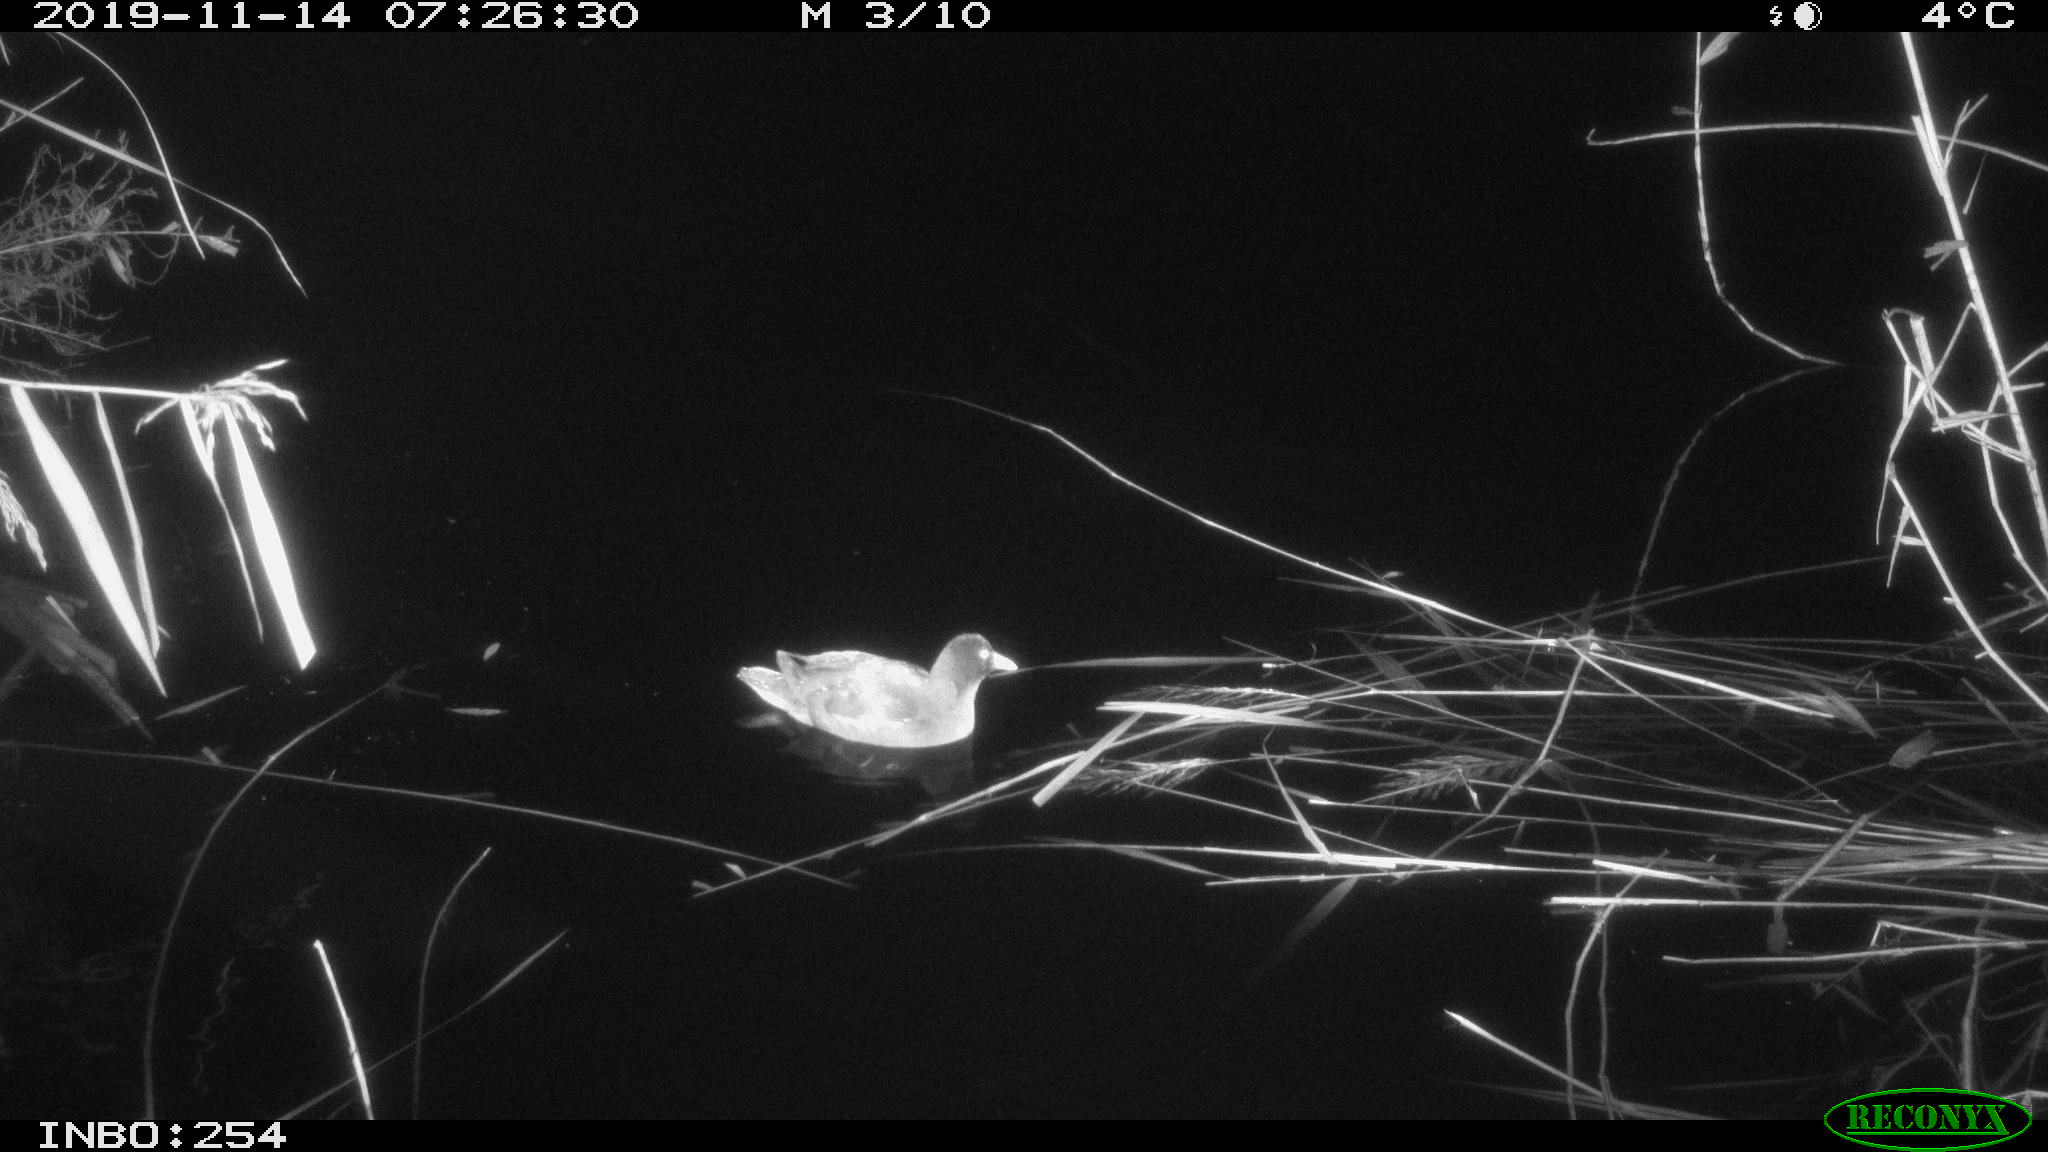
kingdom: Animalia
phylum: Chordata
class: Aves
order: Gruiformes
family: Rallidae
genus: Gallinula
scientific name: Gallinula chloropus
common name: Common moorhen
